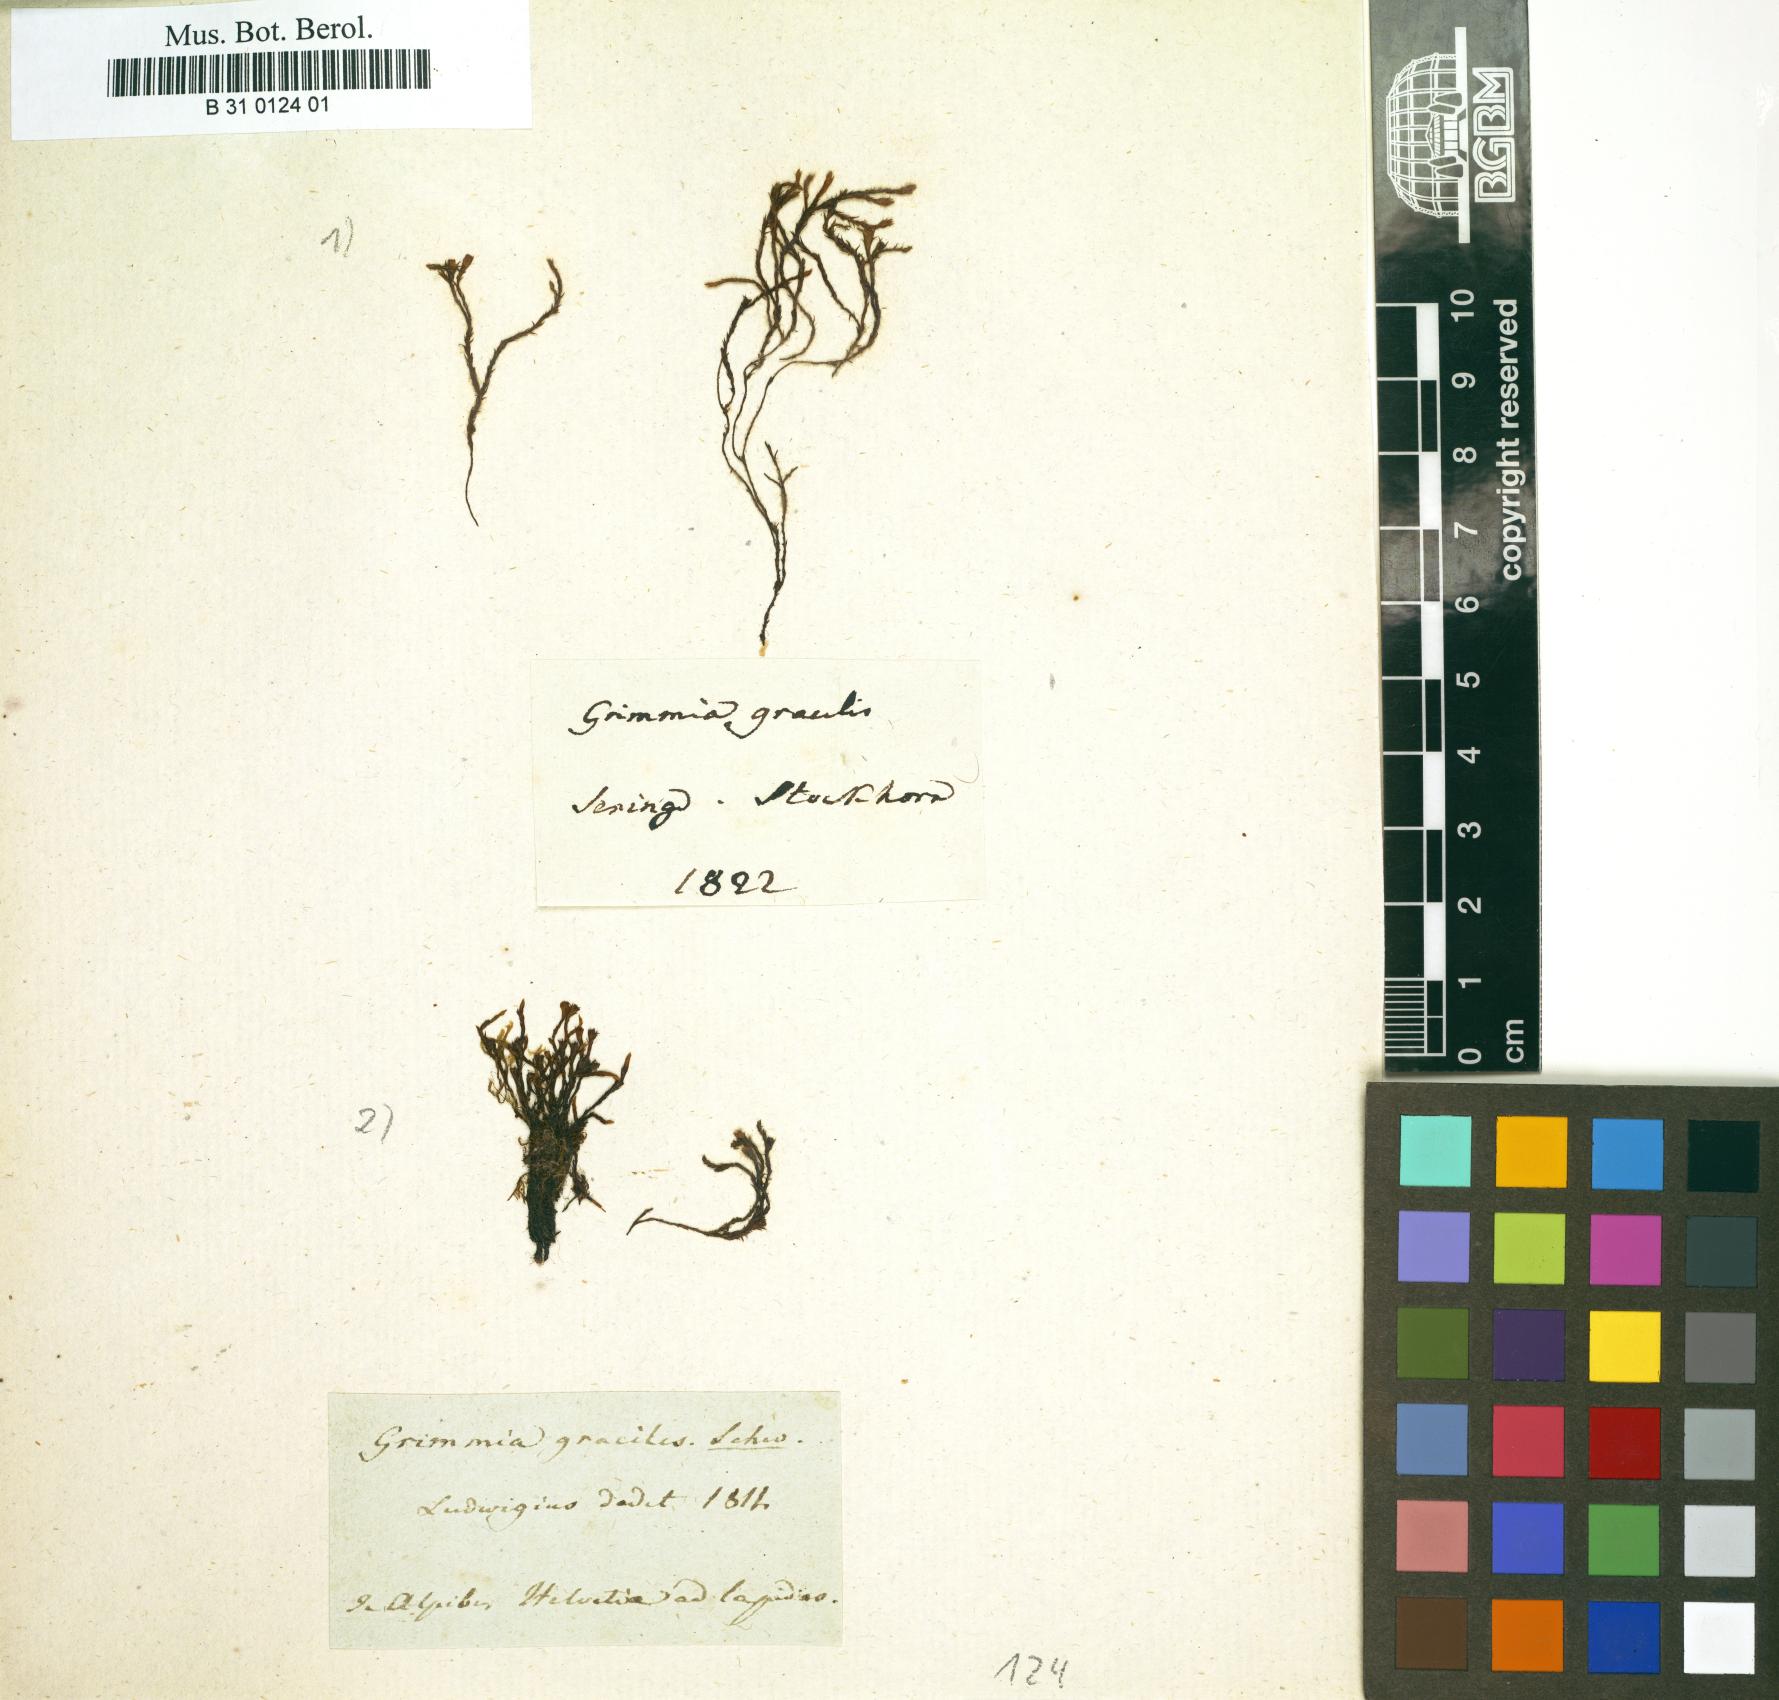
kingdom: Plantae
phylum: Bryophyta
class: Bryopsida
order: Hypnales
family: Lembophyllaceae
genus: Nogopterium
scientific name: Nogopterium gracile
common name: Bird's-foot wing-moss
